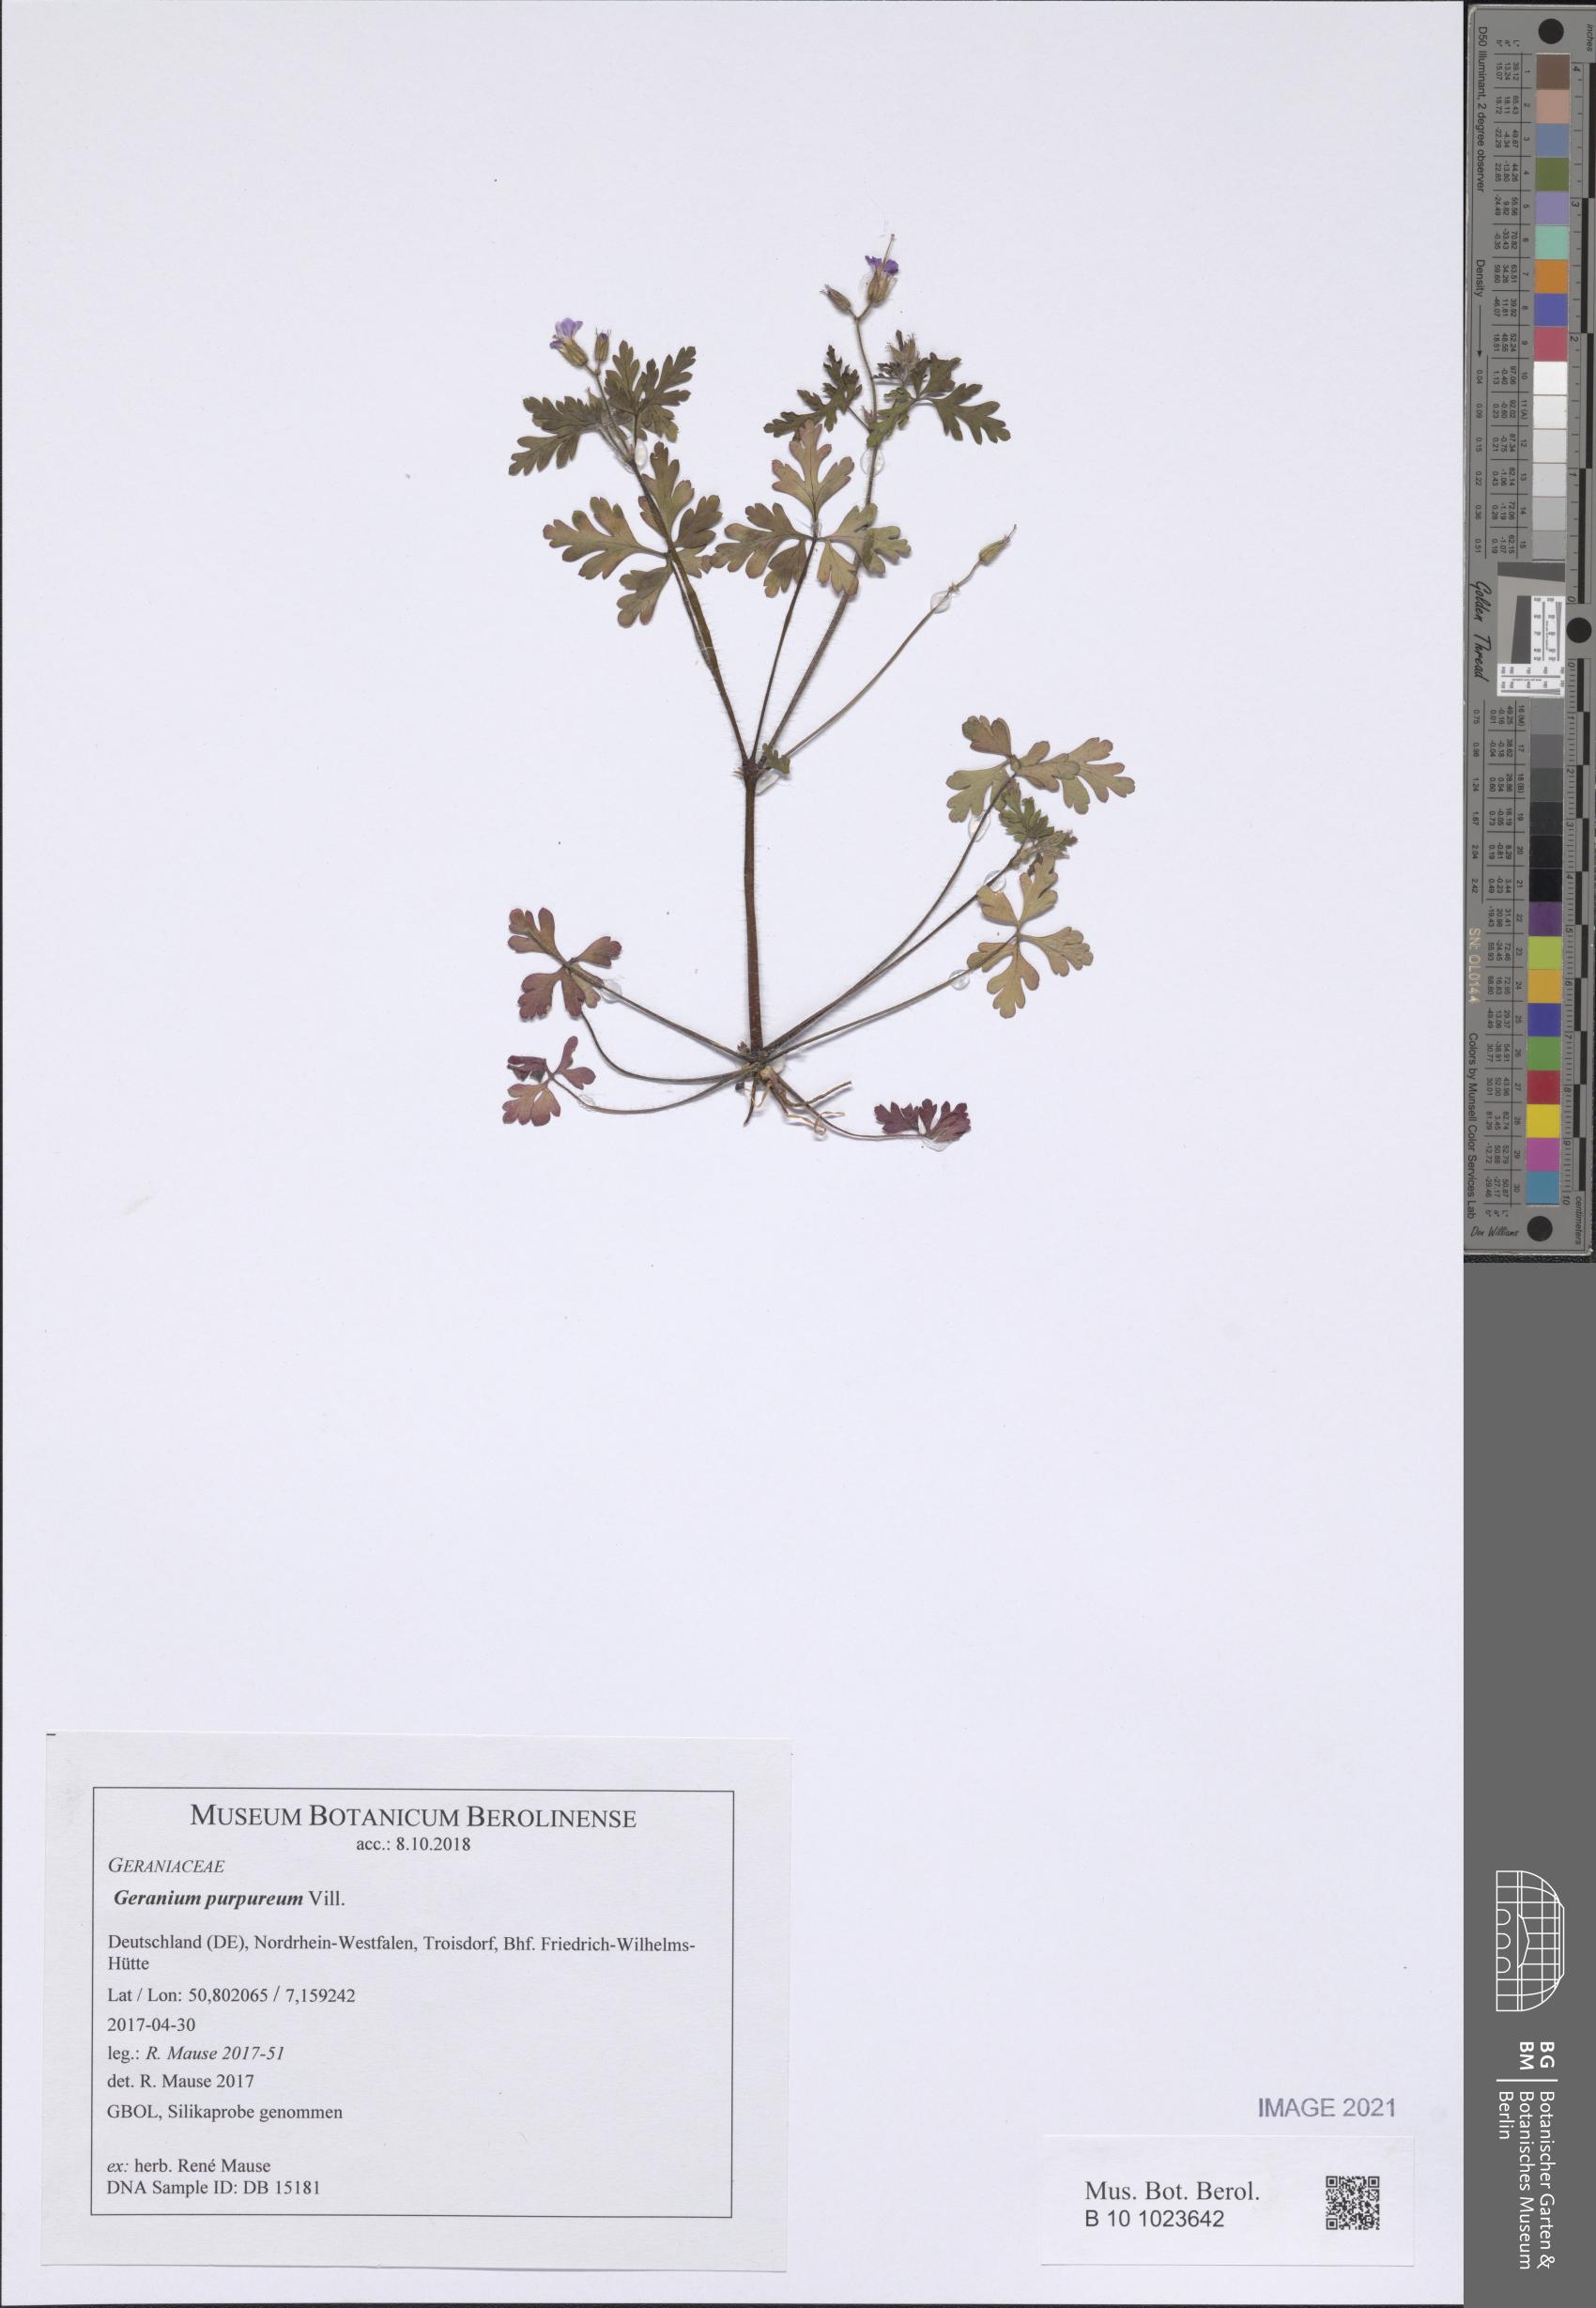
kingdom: Plantae
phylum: Tracheophyta
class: Magnoliopsida
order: Geraniales
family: Geraniaceae
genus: Geranium
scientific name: Geranium purpureum
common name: Little-robin
